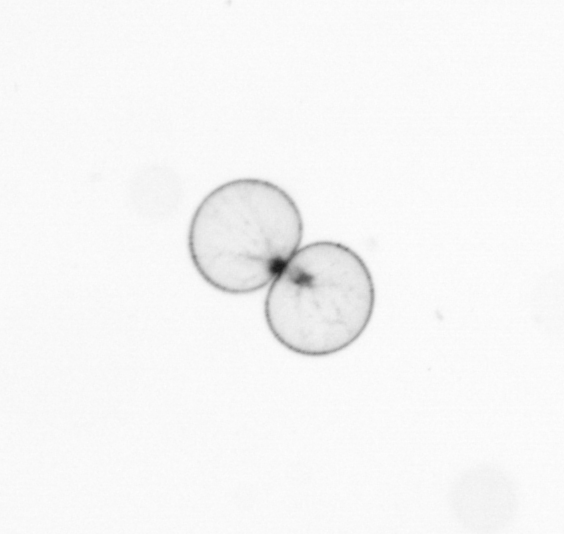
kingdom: Chromista
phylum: Myzozoa
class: Dinophyceae
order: Noctilucales
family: Noctilucaceae
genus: Noctiluca
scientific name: Noctiluca scintillans
